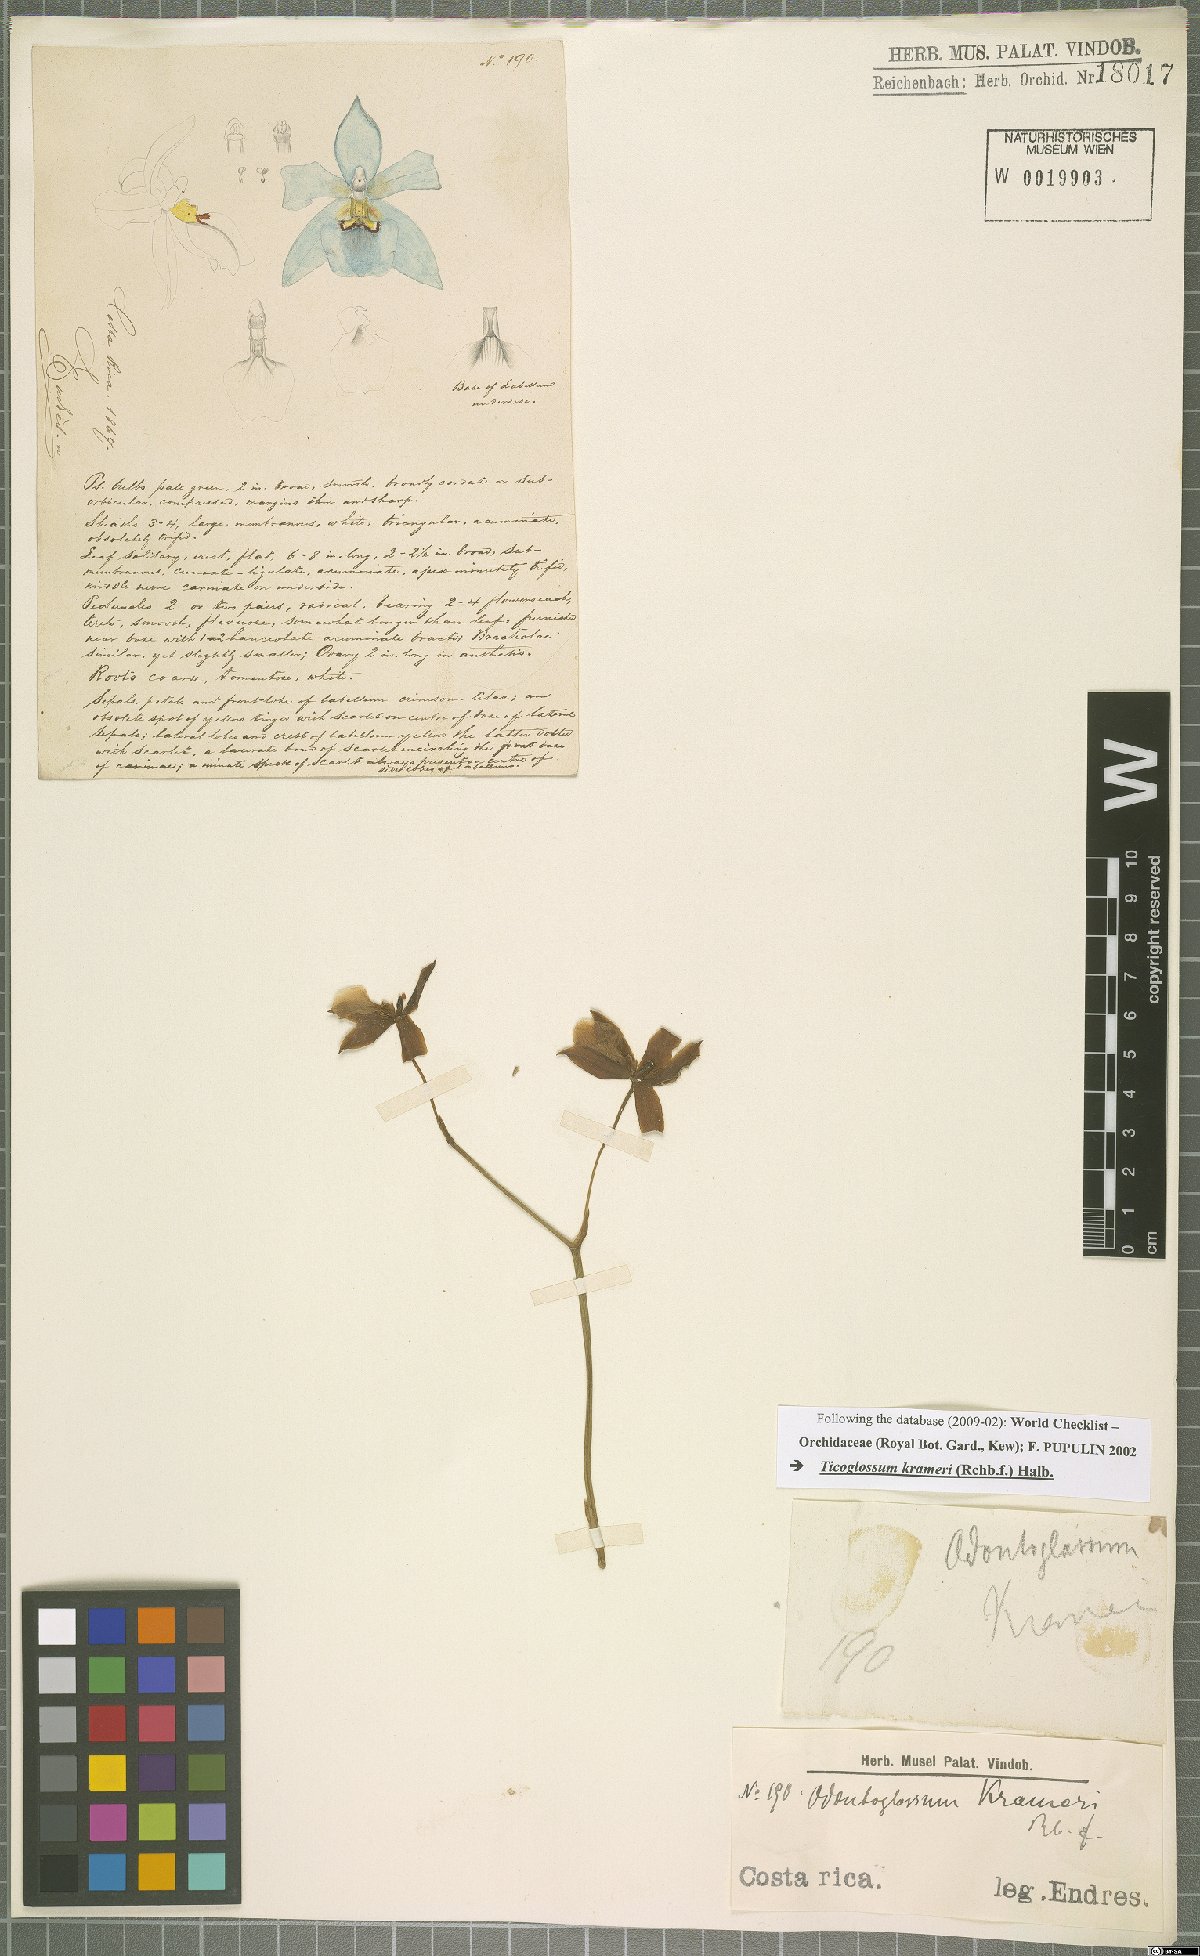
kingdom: Plantae
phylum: Tracheophyta
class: Liliopsida
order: Asparagales
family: Orchidaceae
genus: Rossioglossum
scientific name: Rossioglossum krameri
